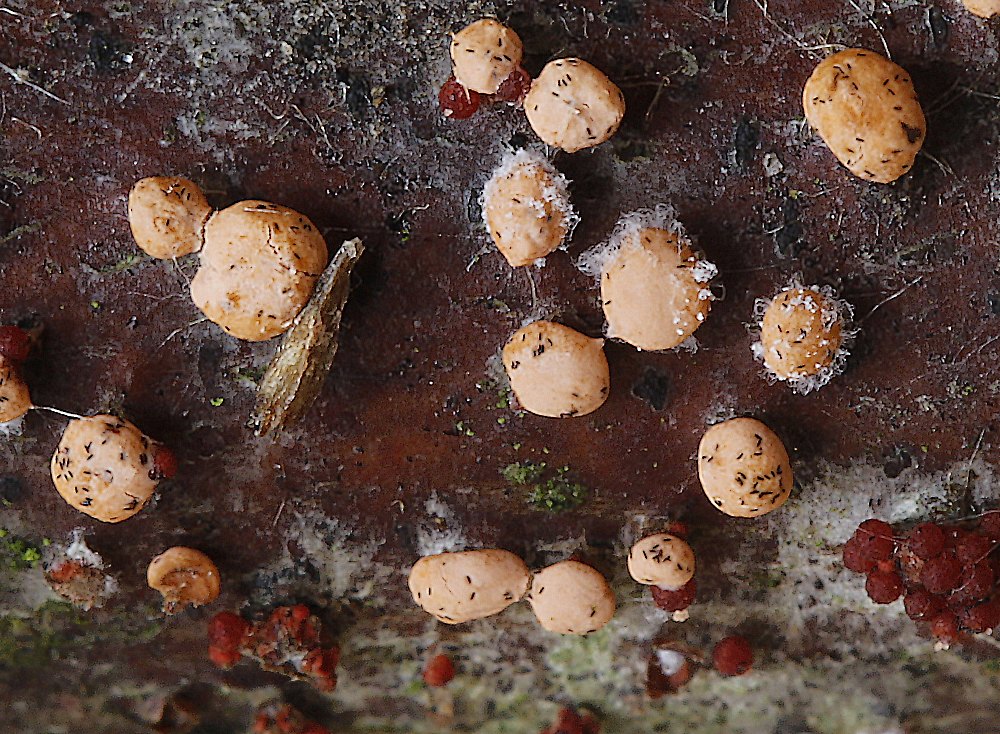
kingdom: Fungi
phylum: Ascomycota
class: Sordariomycetes
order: Hypocreales
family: Nectriaceae
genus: Nectria
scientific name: Nectria cinnabarina
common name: almindelig cinnobersvamp
